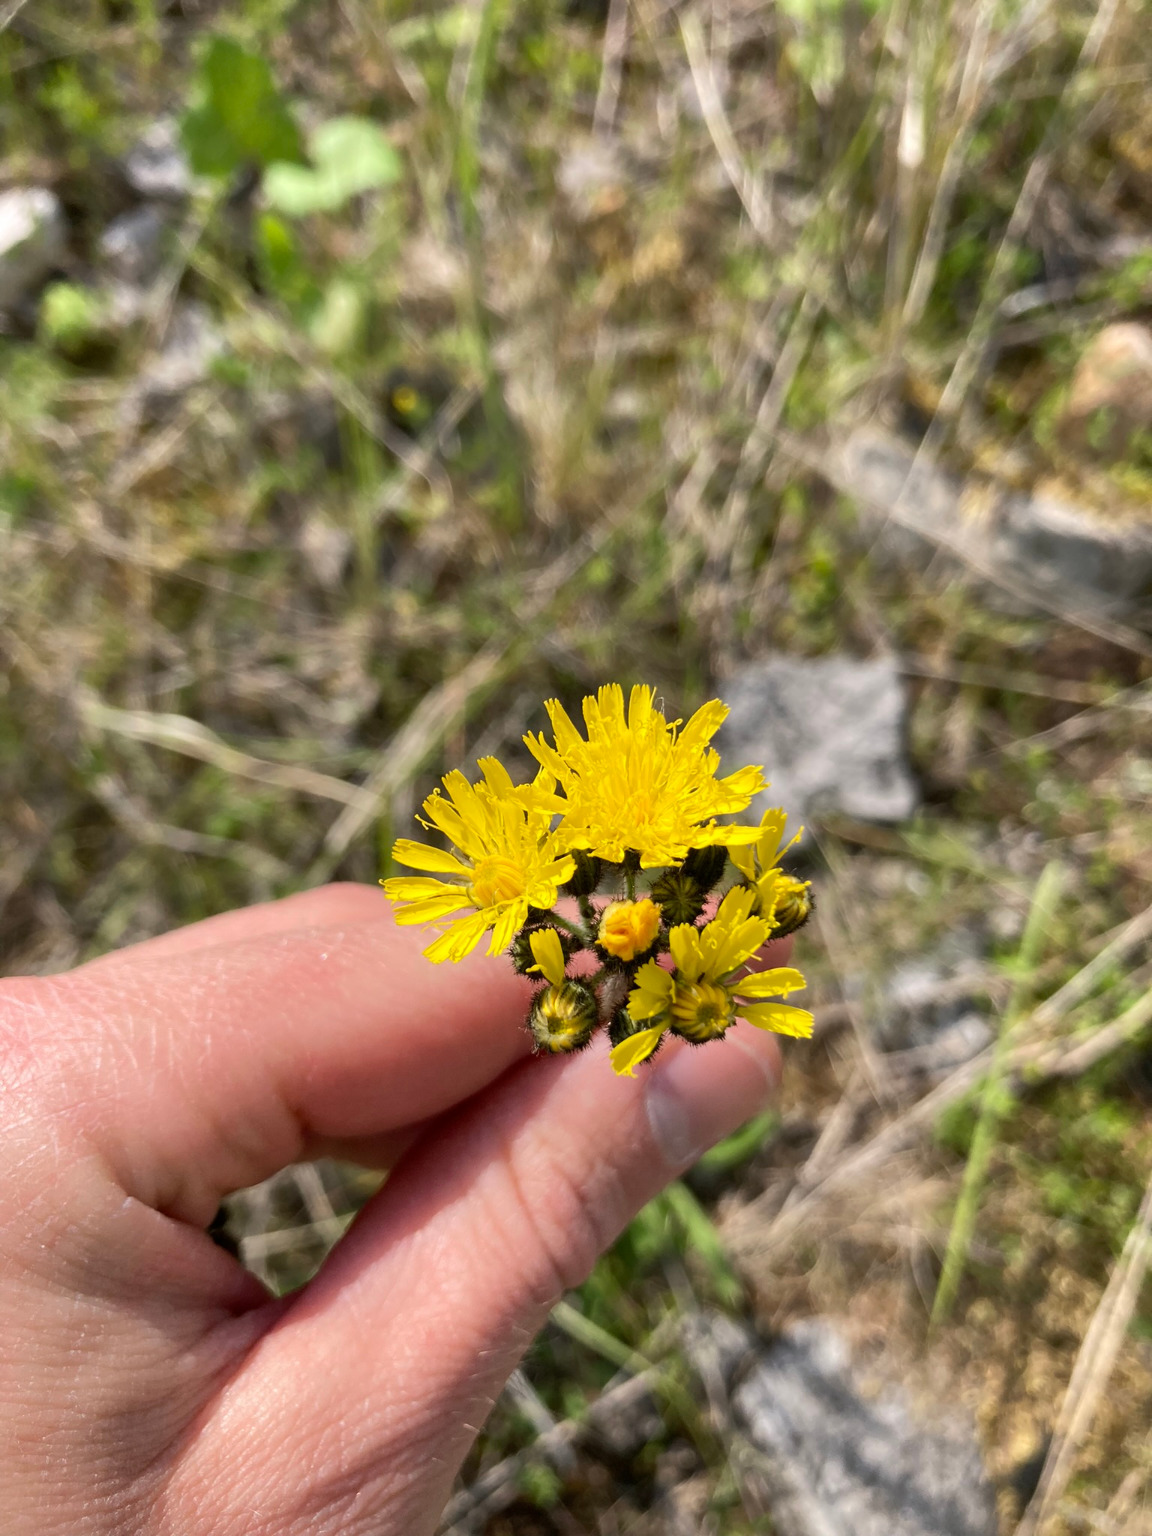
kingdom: Plantae
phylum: Tracheophyta
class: Magnoliopsida
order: Asterales
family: Asteraceae
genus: Pilosella
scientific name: Pilosella caespitosa
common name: Eng-høgeurt
